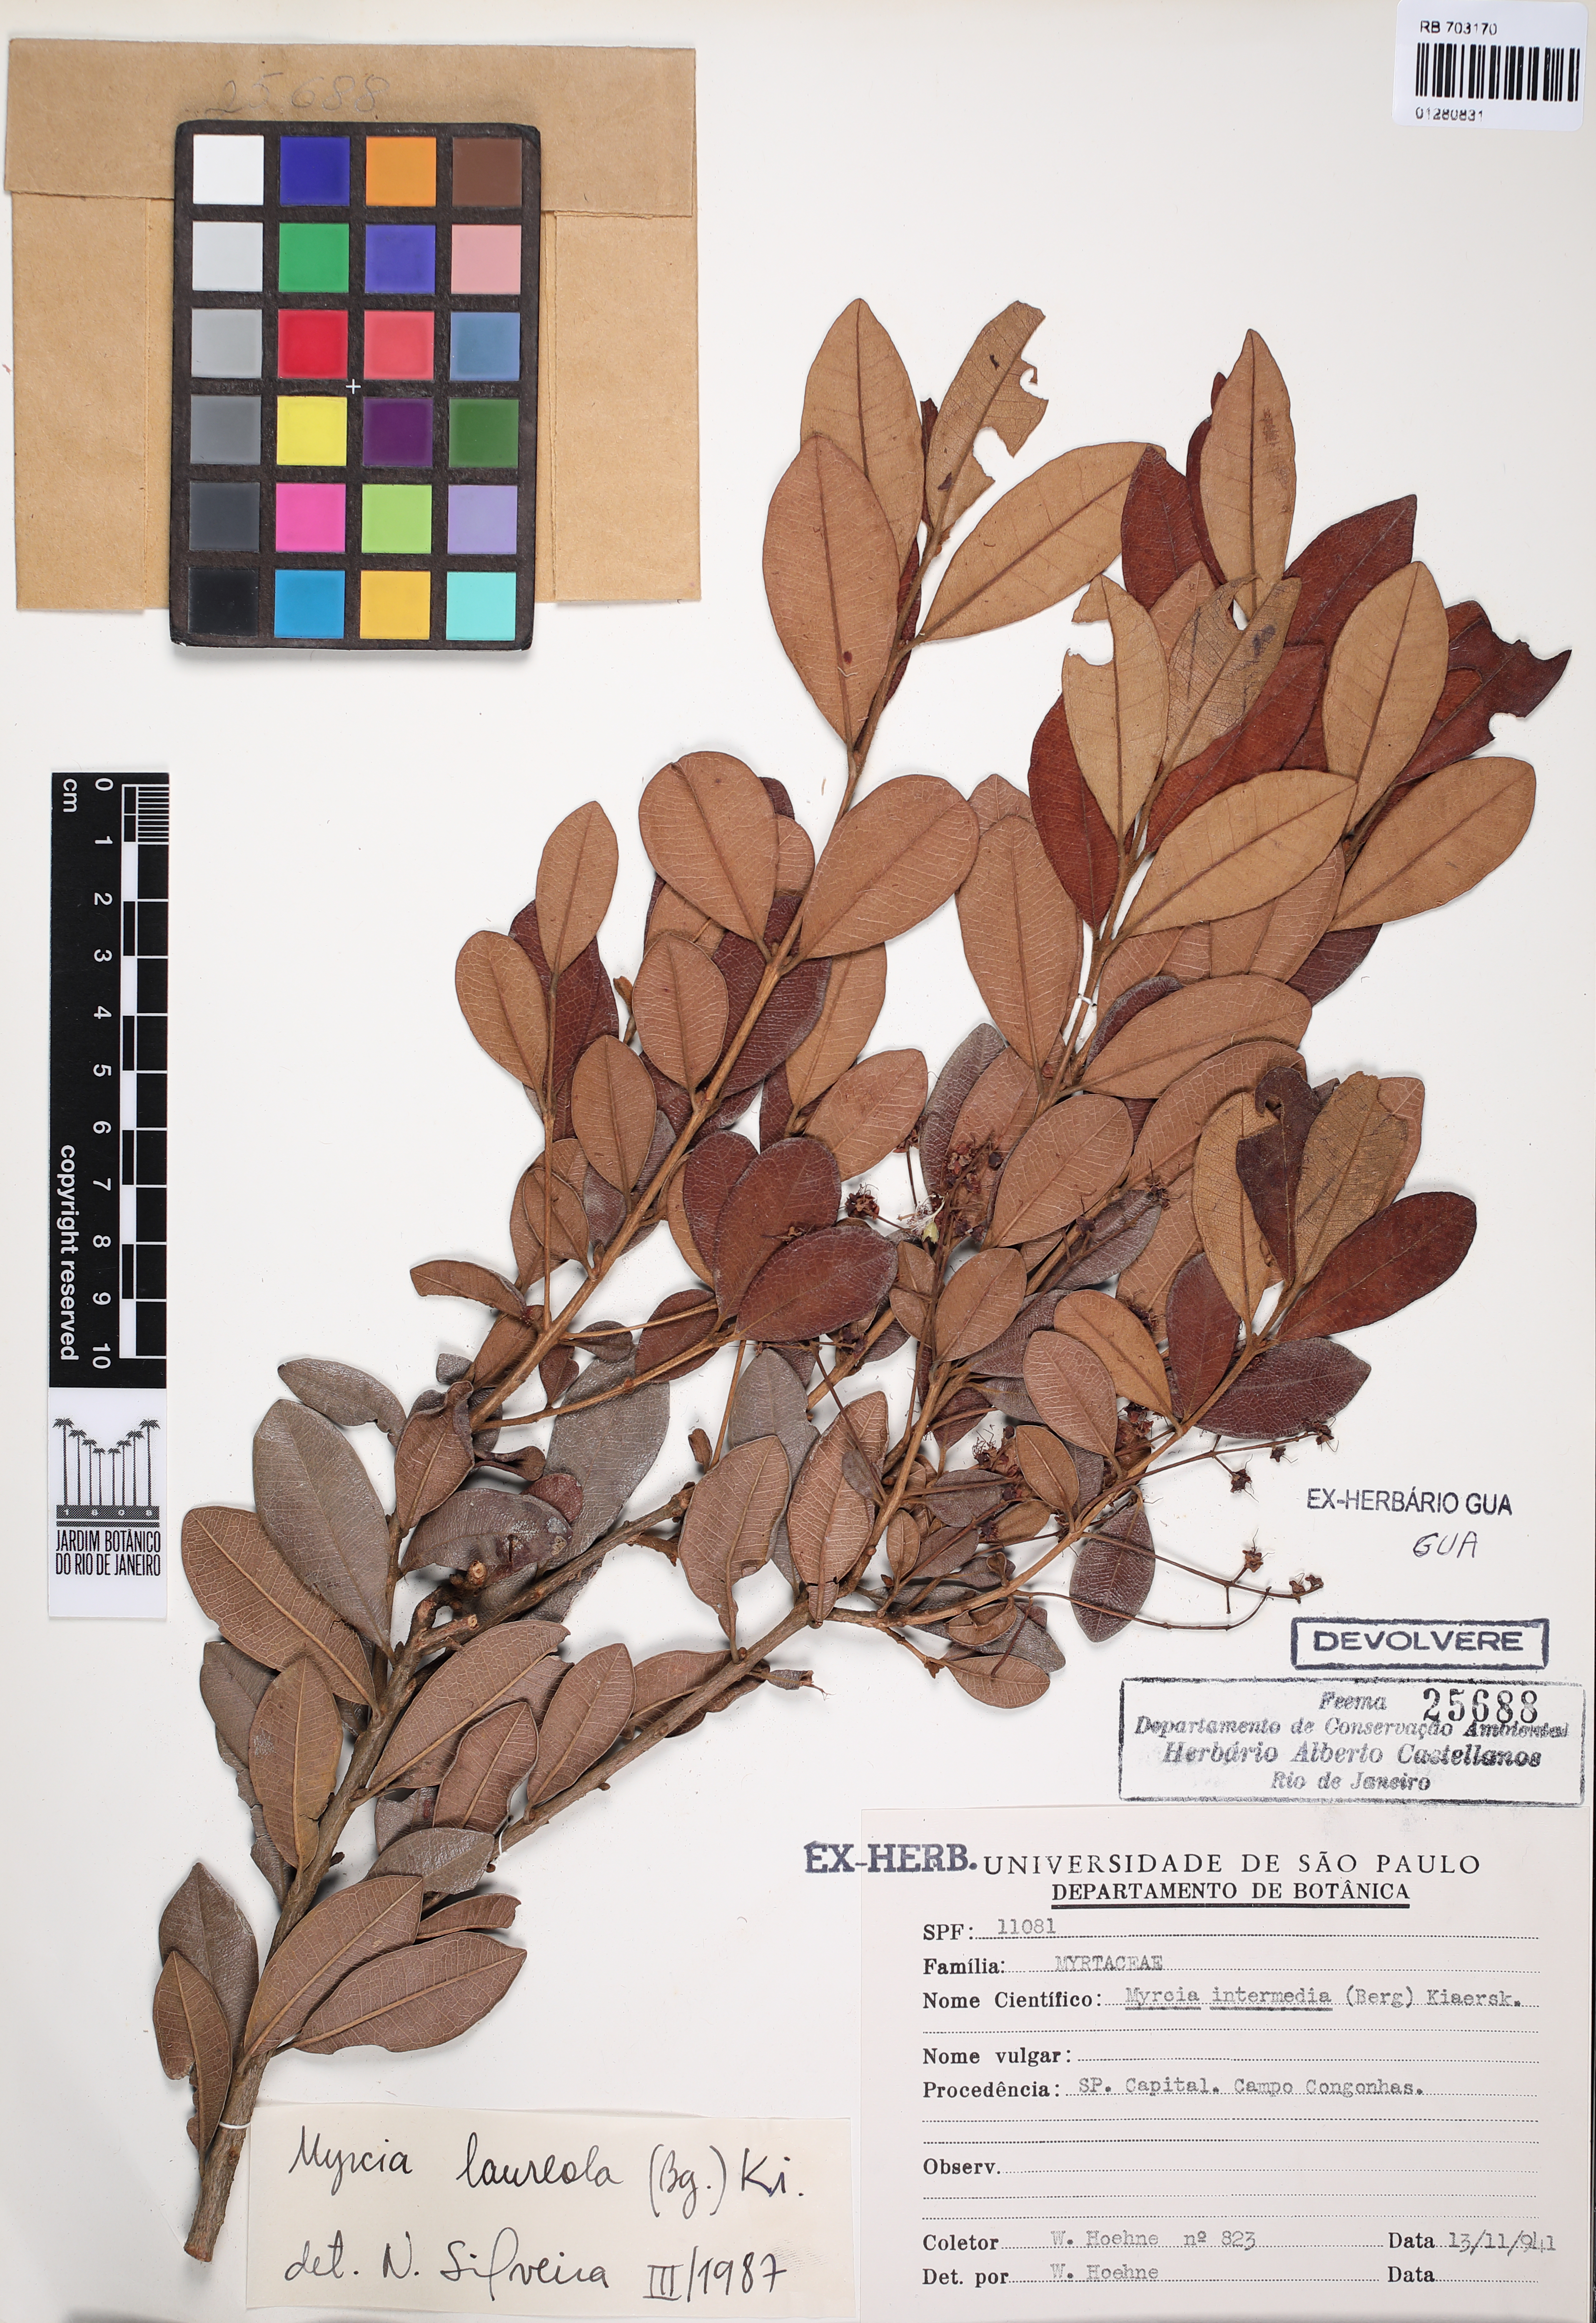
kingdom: Plantae
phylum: Tracheophyta
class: Magnoliopsida
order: Myrtales
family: Myrtaceae
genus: Myrcia
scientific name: Myrcia venulosa
